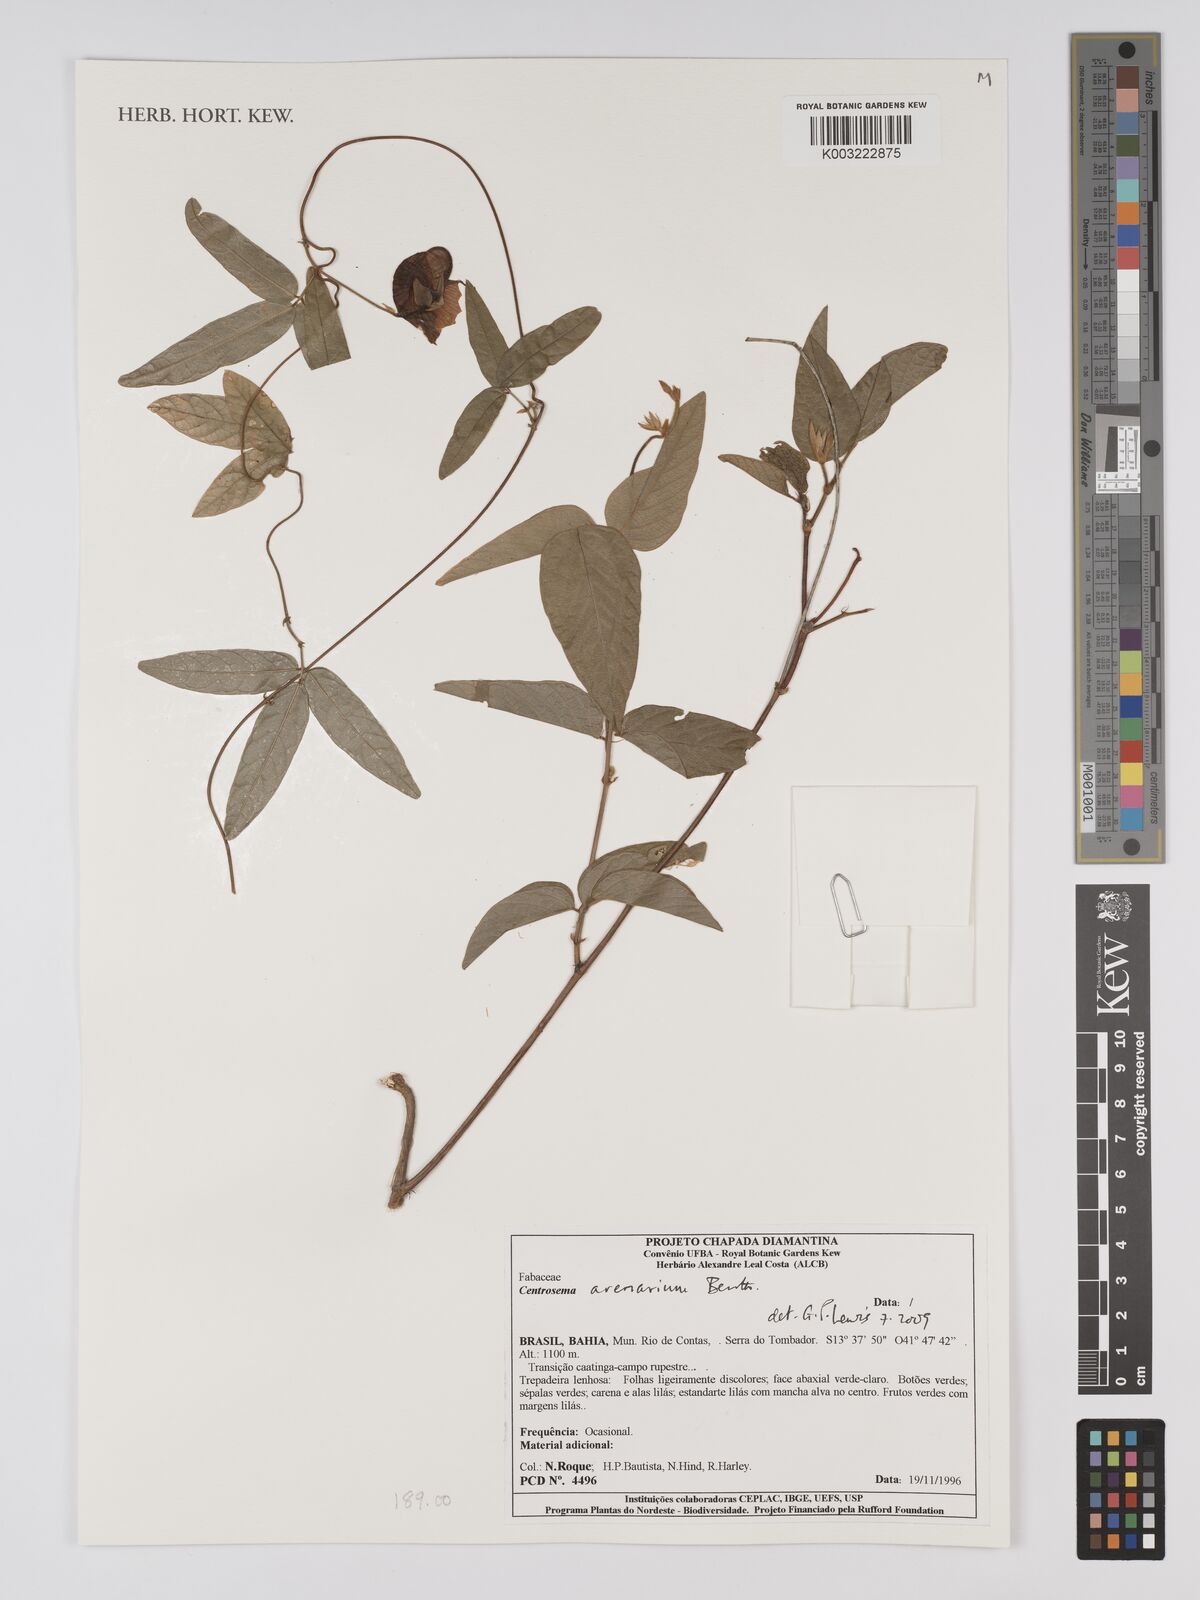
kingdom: Plantae
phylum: Tracheophyta
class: Magnoliopsida
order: Fabales
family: Fabaceae
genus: Centrosema
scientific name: Centrosema arenarium
